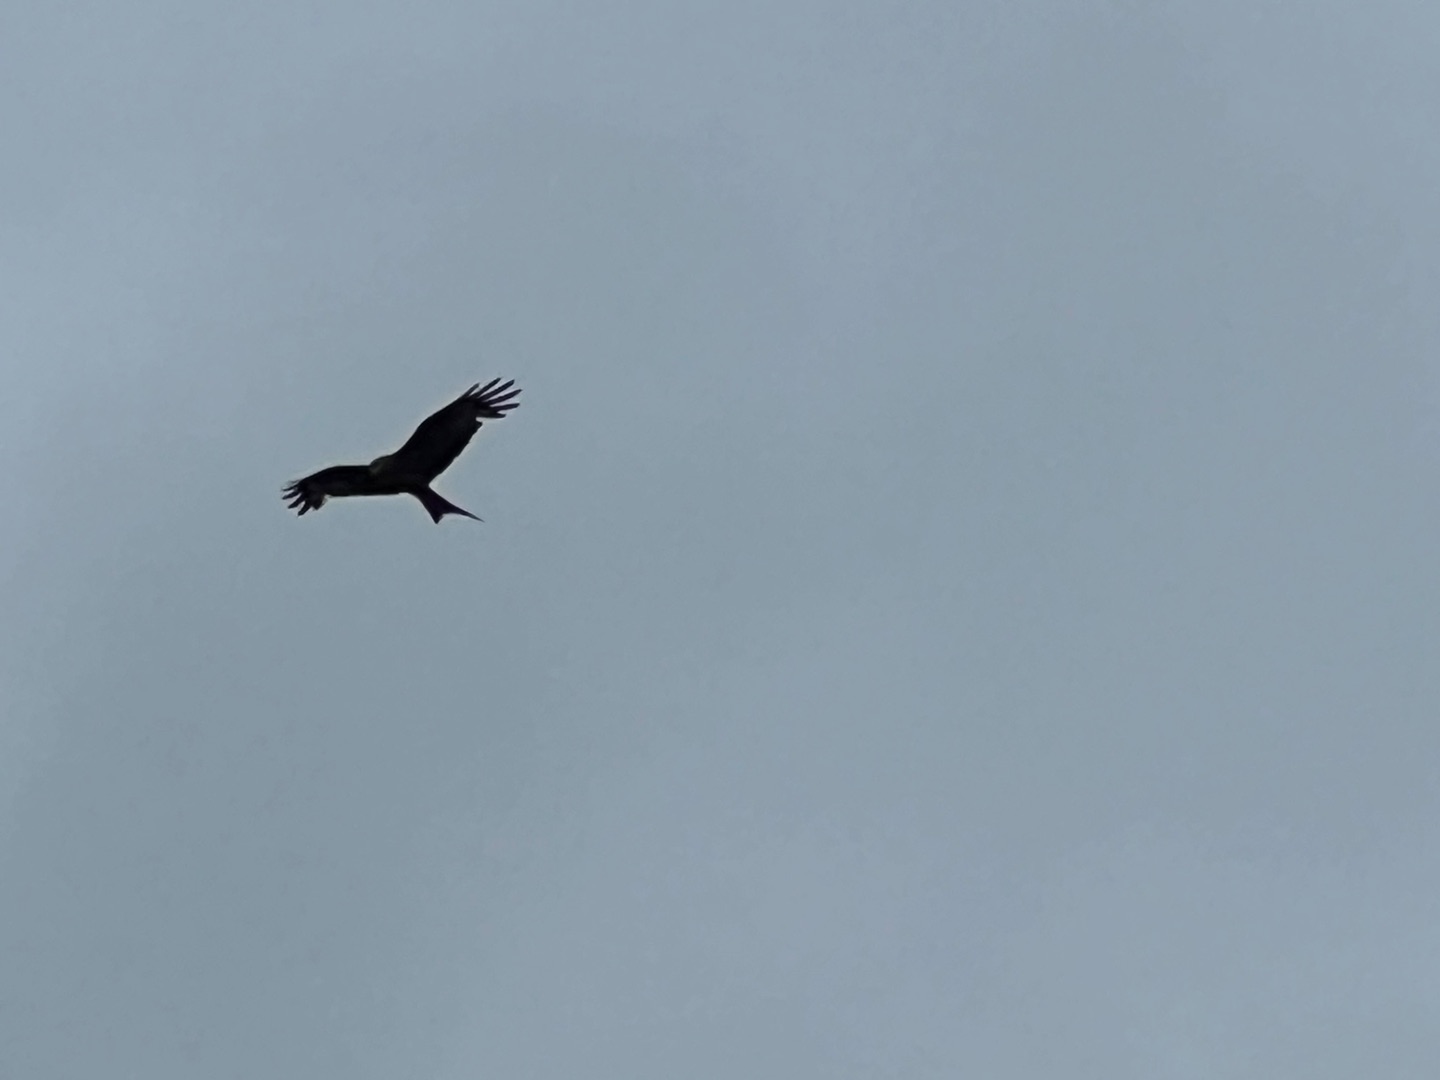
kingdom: Animalia
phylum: Chordata
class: Aves
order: Accipitriformes
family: Accipitridae
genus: Milvus
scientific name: Milvus milvus
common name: Rød glente
